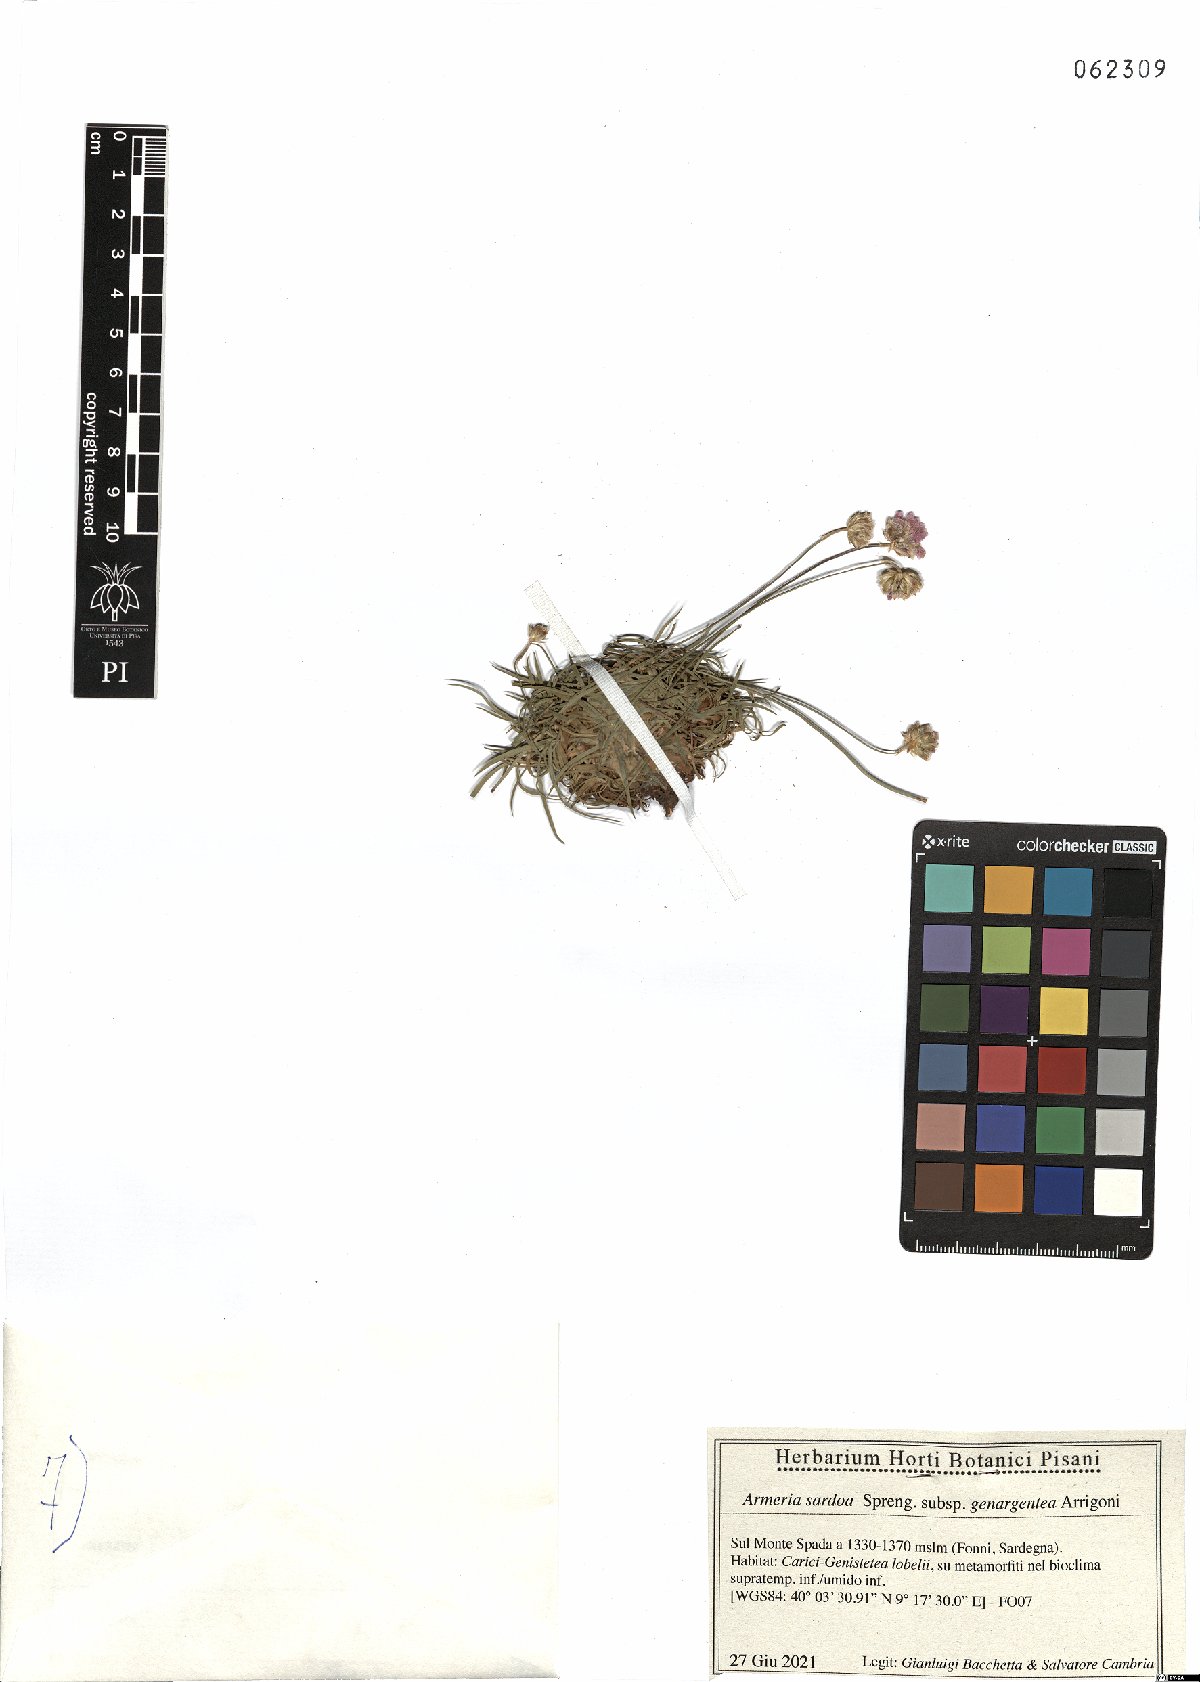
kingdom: Plantae
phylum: Tracheophyta
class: Magnoliopsida
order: Caryophyllales
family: Plumbaginaceae
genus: Armeria
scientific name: Armeria sardoa
